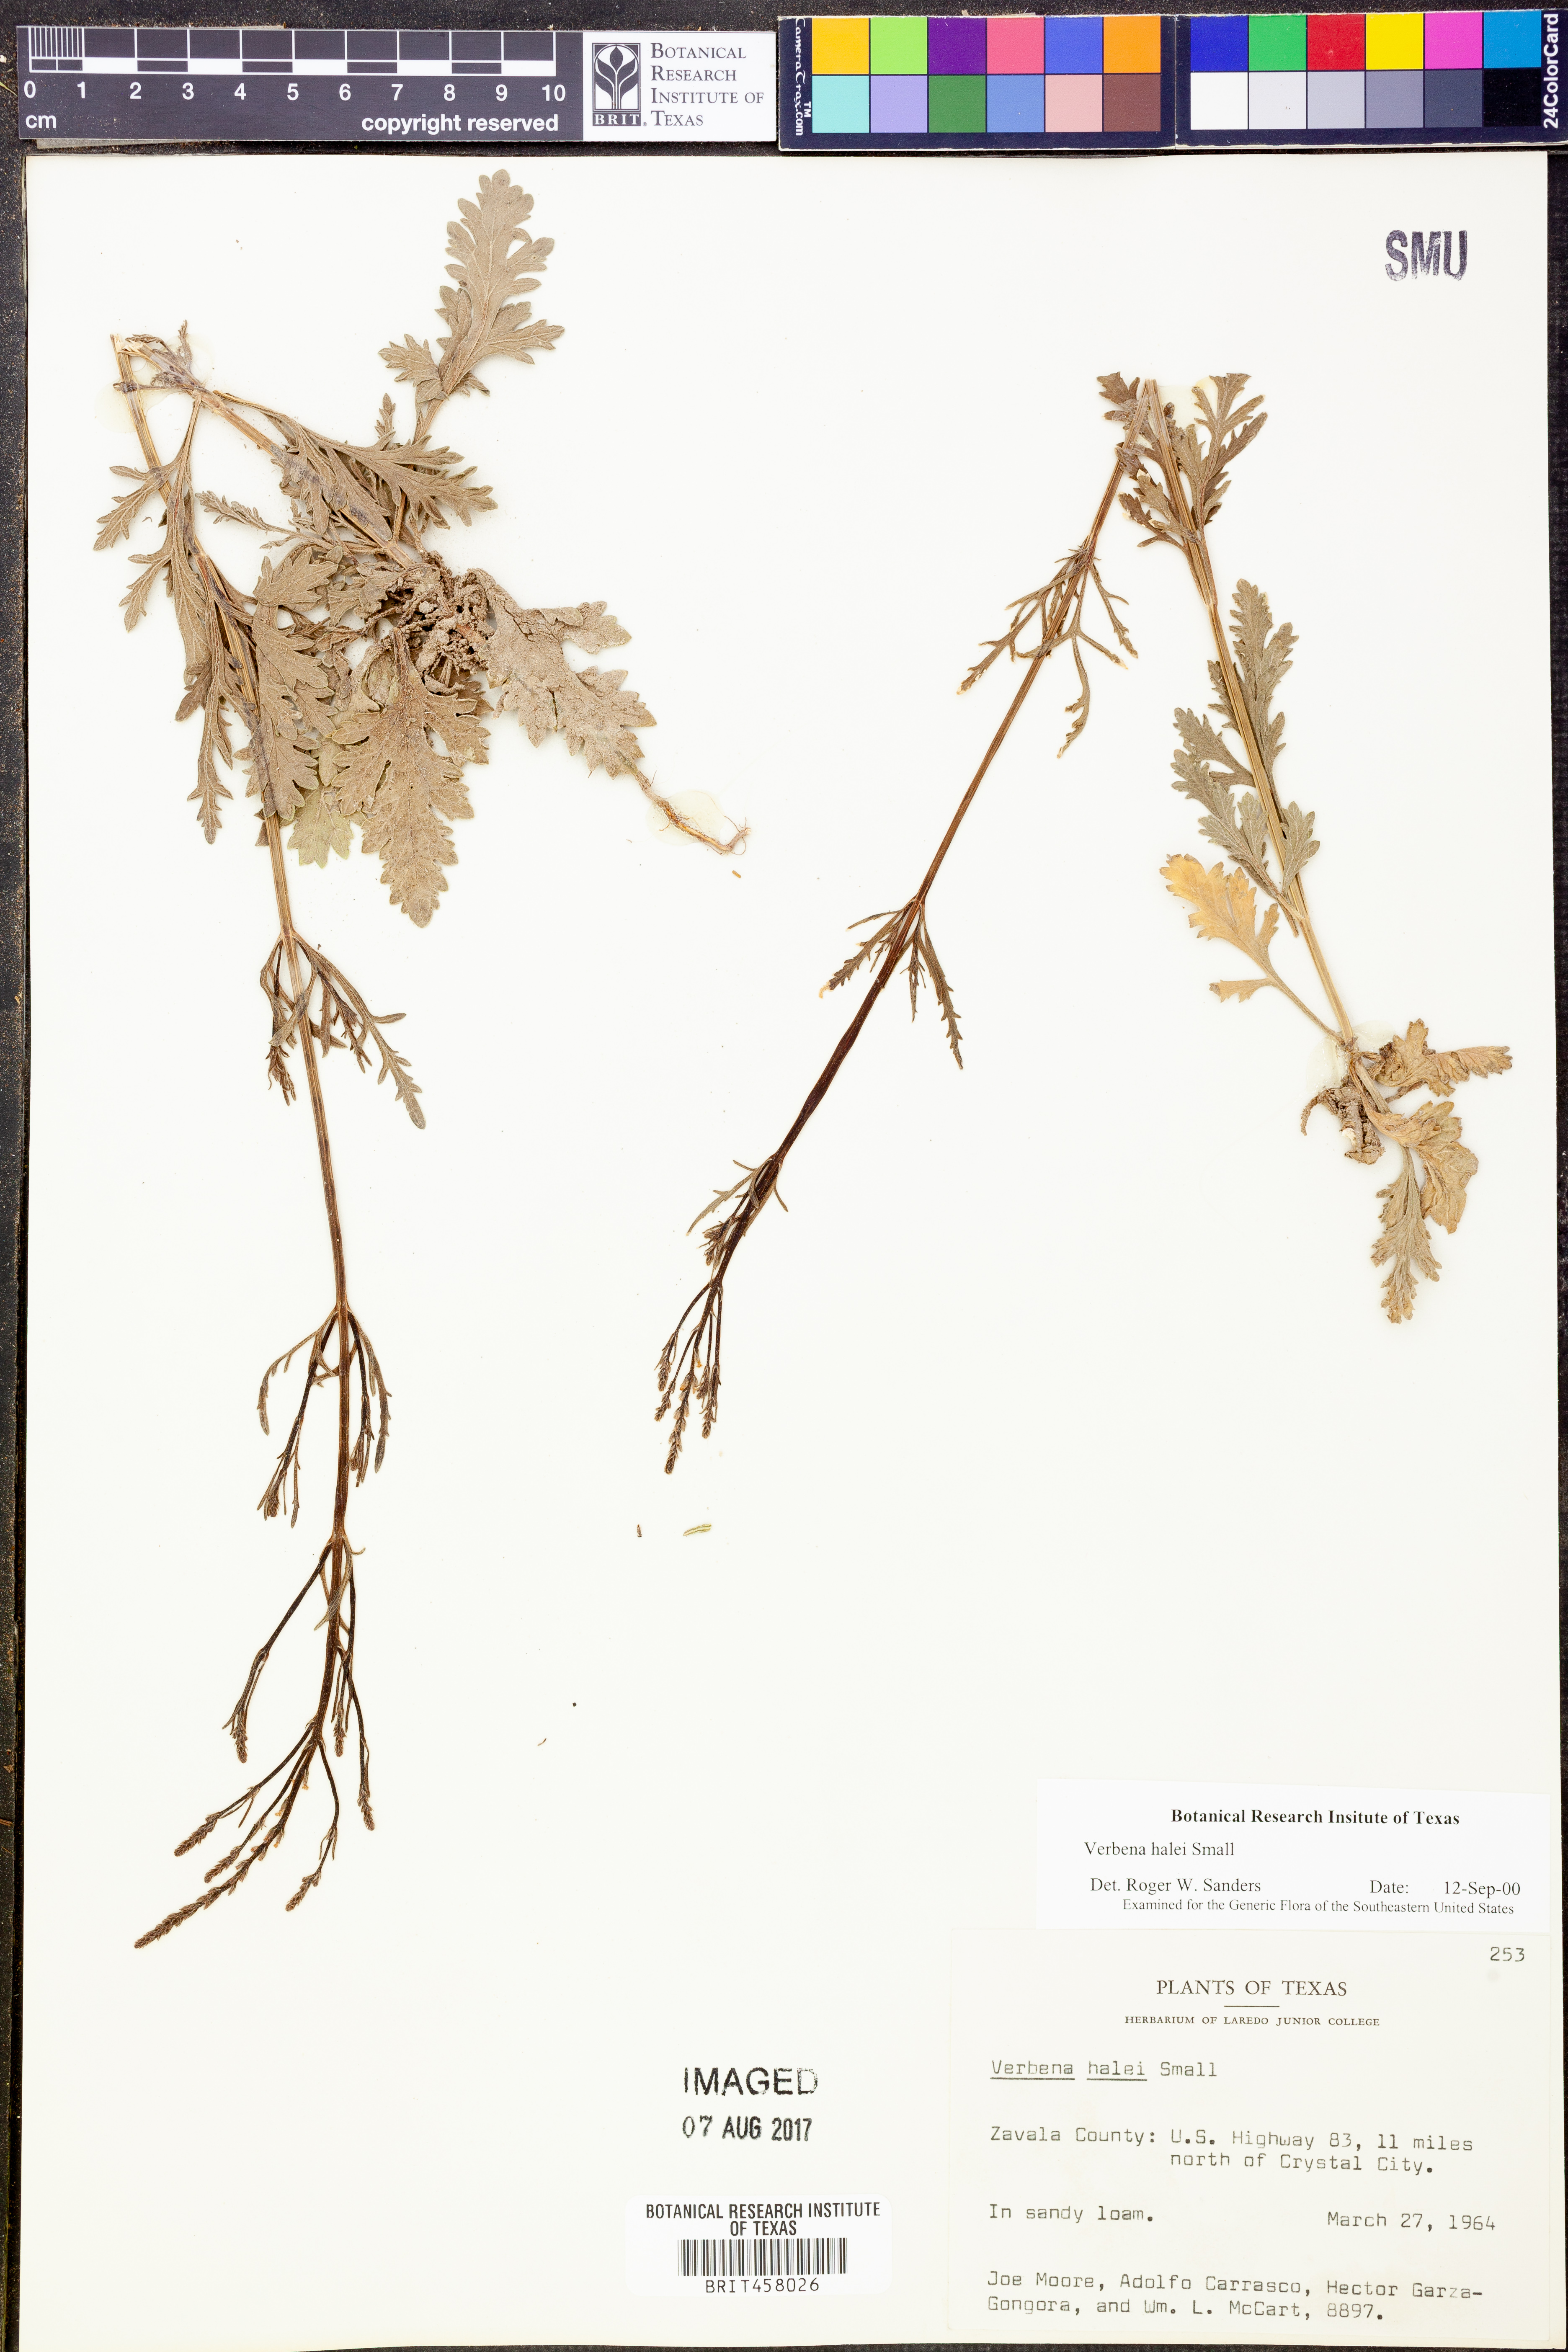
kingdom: Plantae
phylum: Tracheophyta
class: Magnoliopsida
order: Lamiales
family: Verbenaceae
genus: Verbena
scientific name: Verbena halei
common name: Texas vervain
